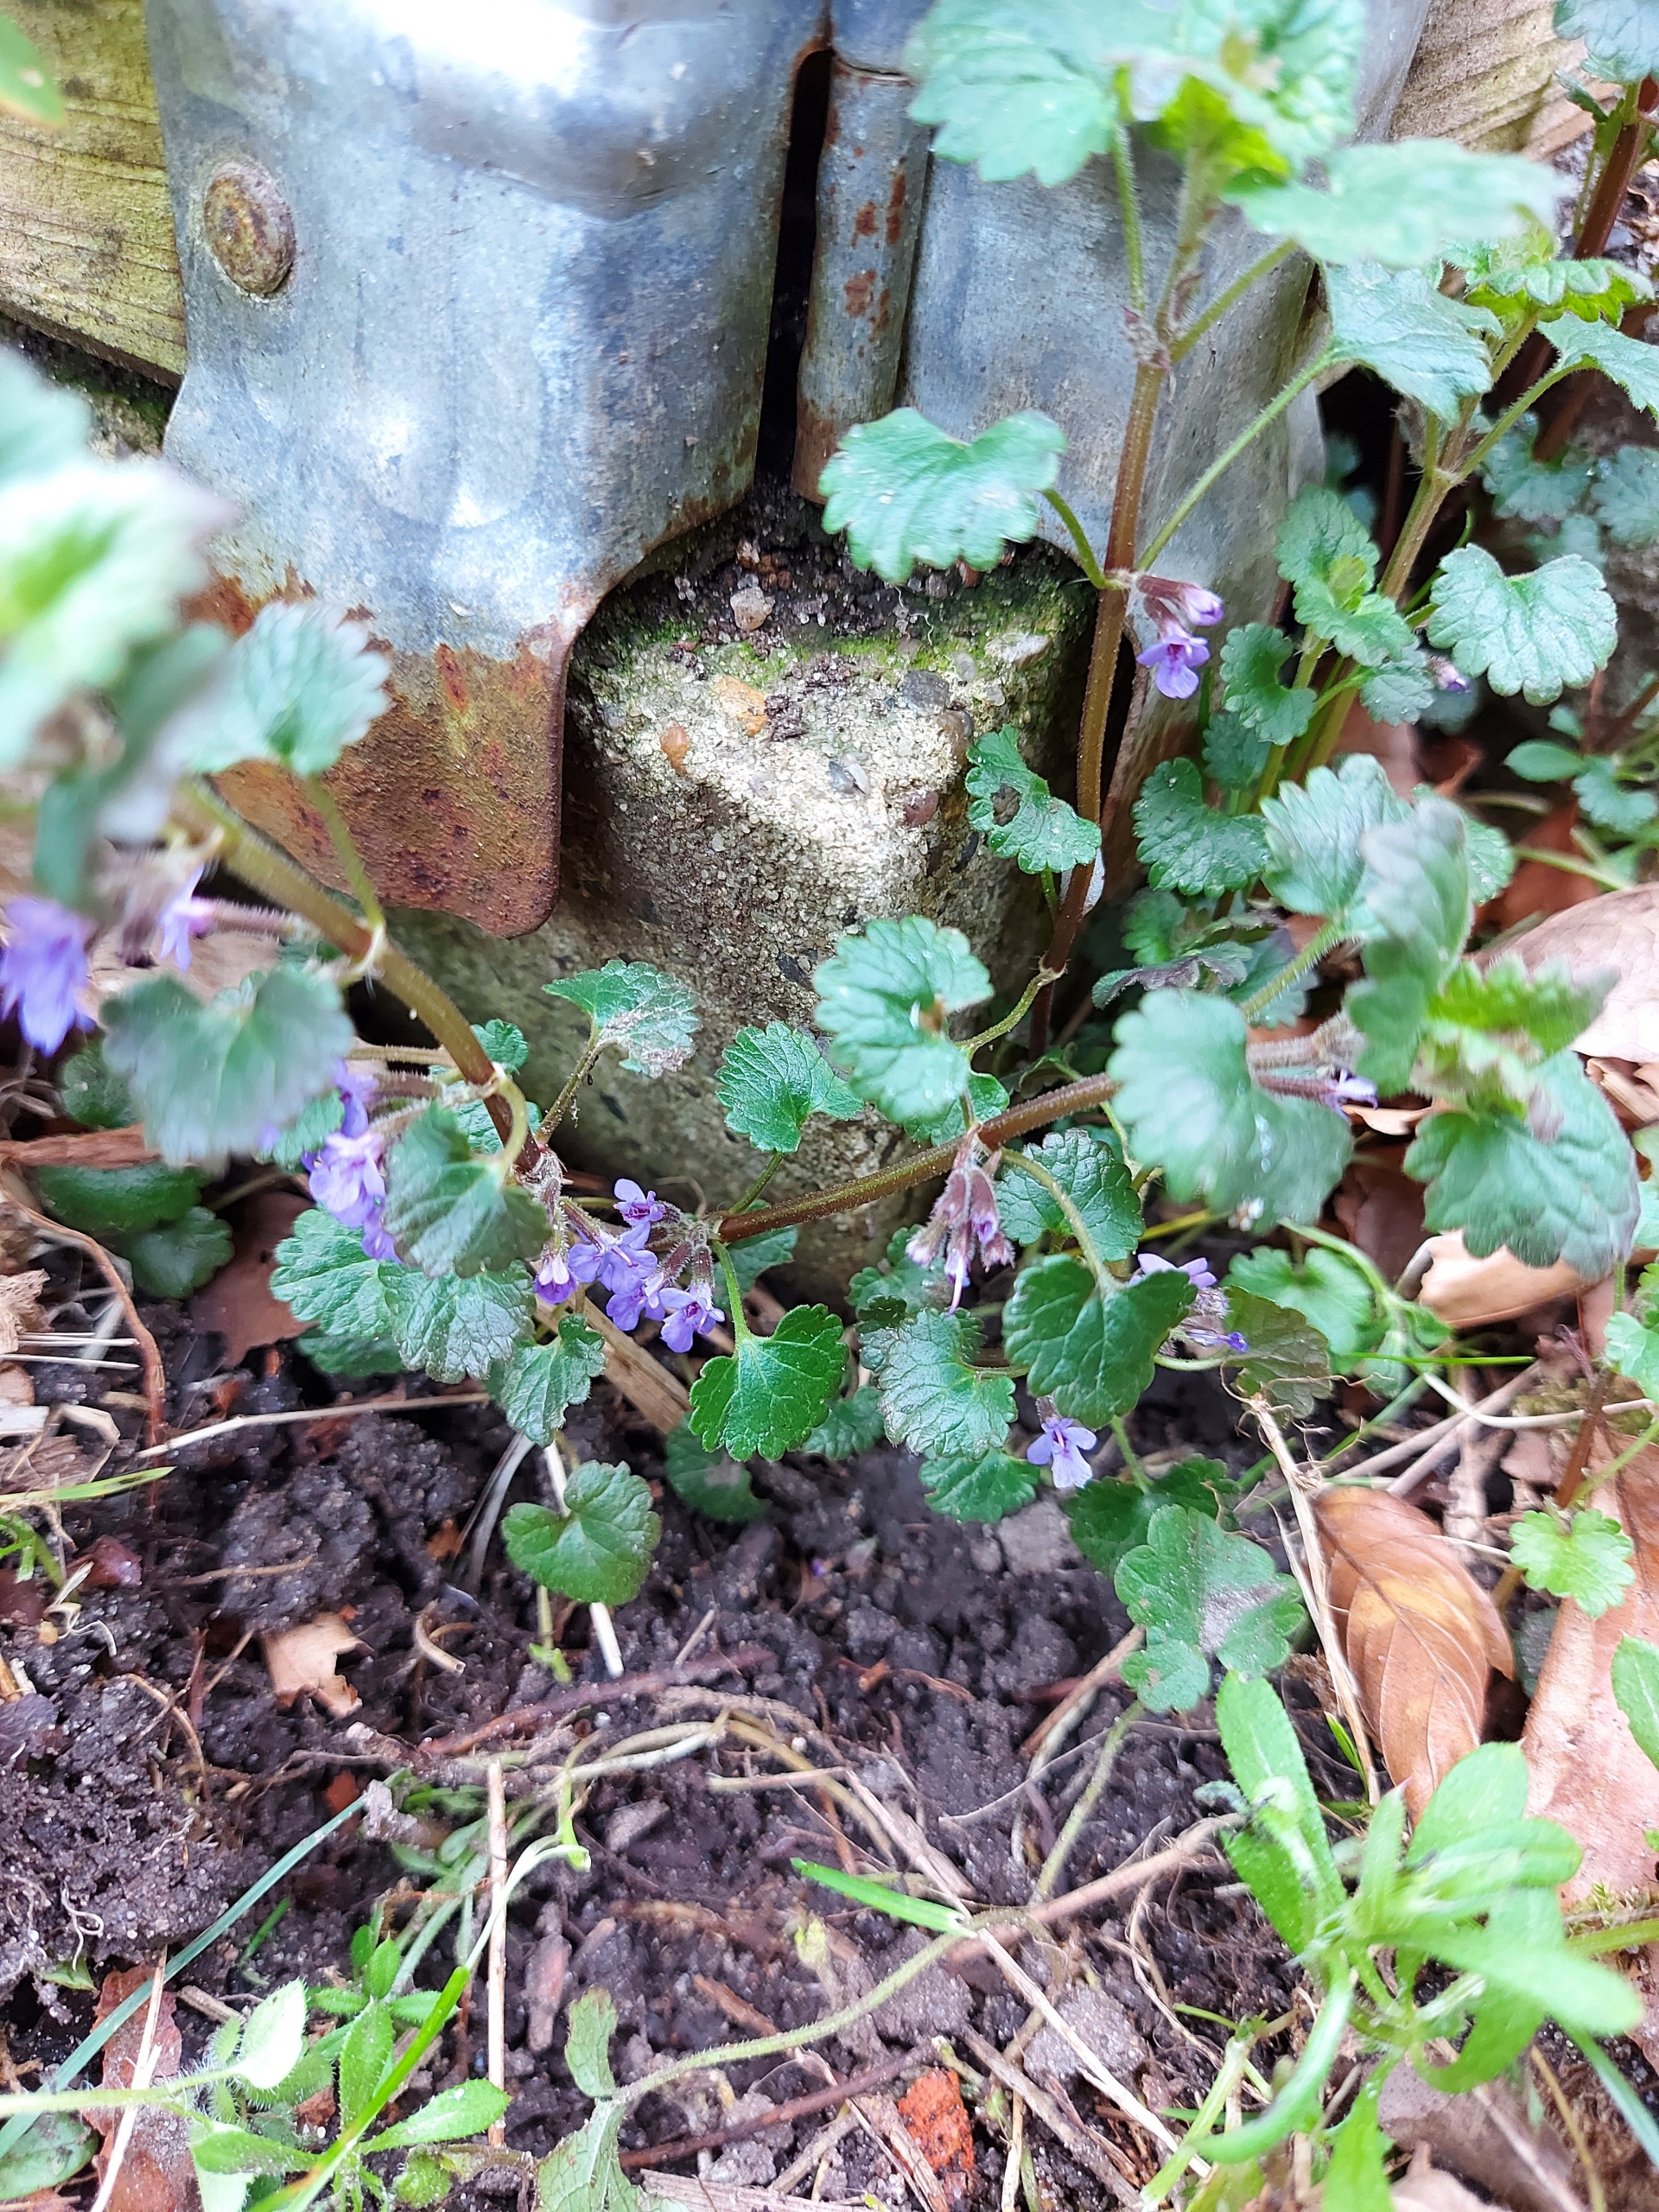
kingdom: Plantae
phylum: Tracheophyta
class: Magnoliopsida
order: Lamiales
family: Lamiaceae
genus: Glechoma
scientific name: Glechoma hederacea
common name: Korsknap
